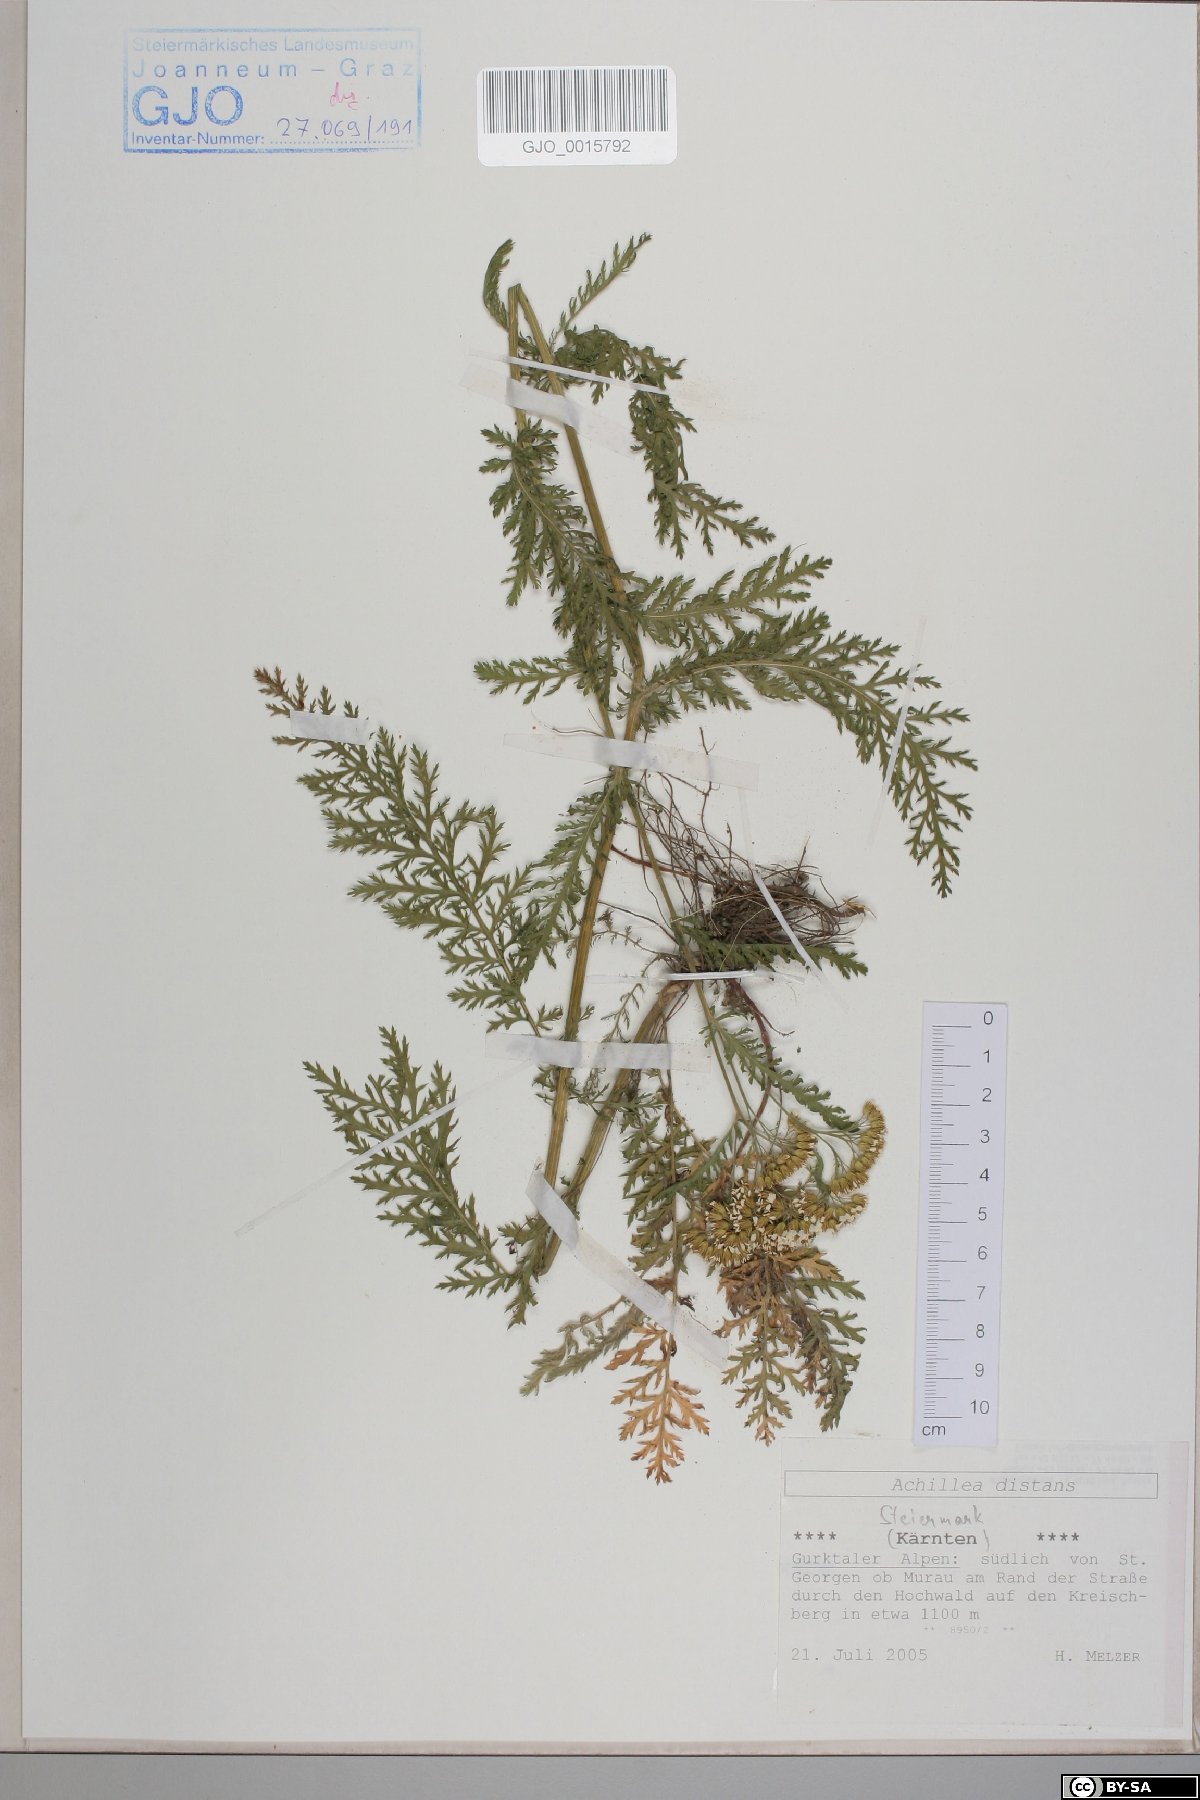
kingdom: Plantae
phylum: Tracheophyta
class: Magnoliopsida
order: Asterales
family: Asteraceae
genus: Achillea
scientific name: Achillea distans
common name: Tall yarrow
